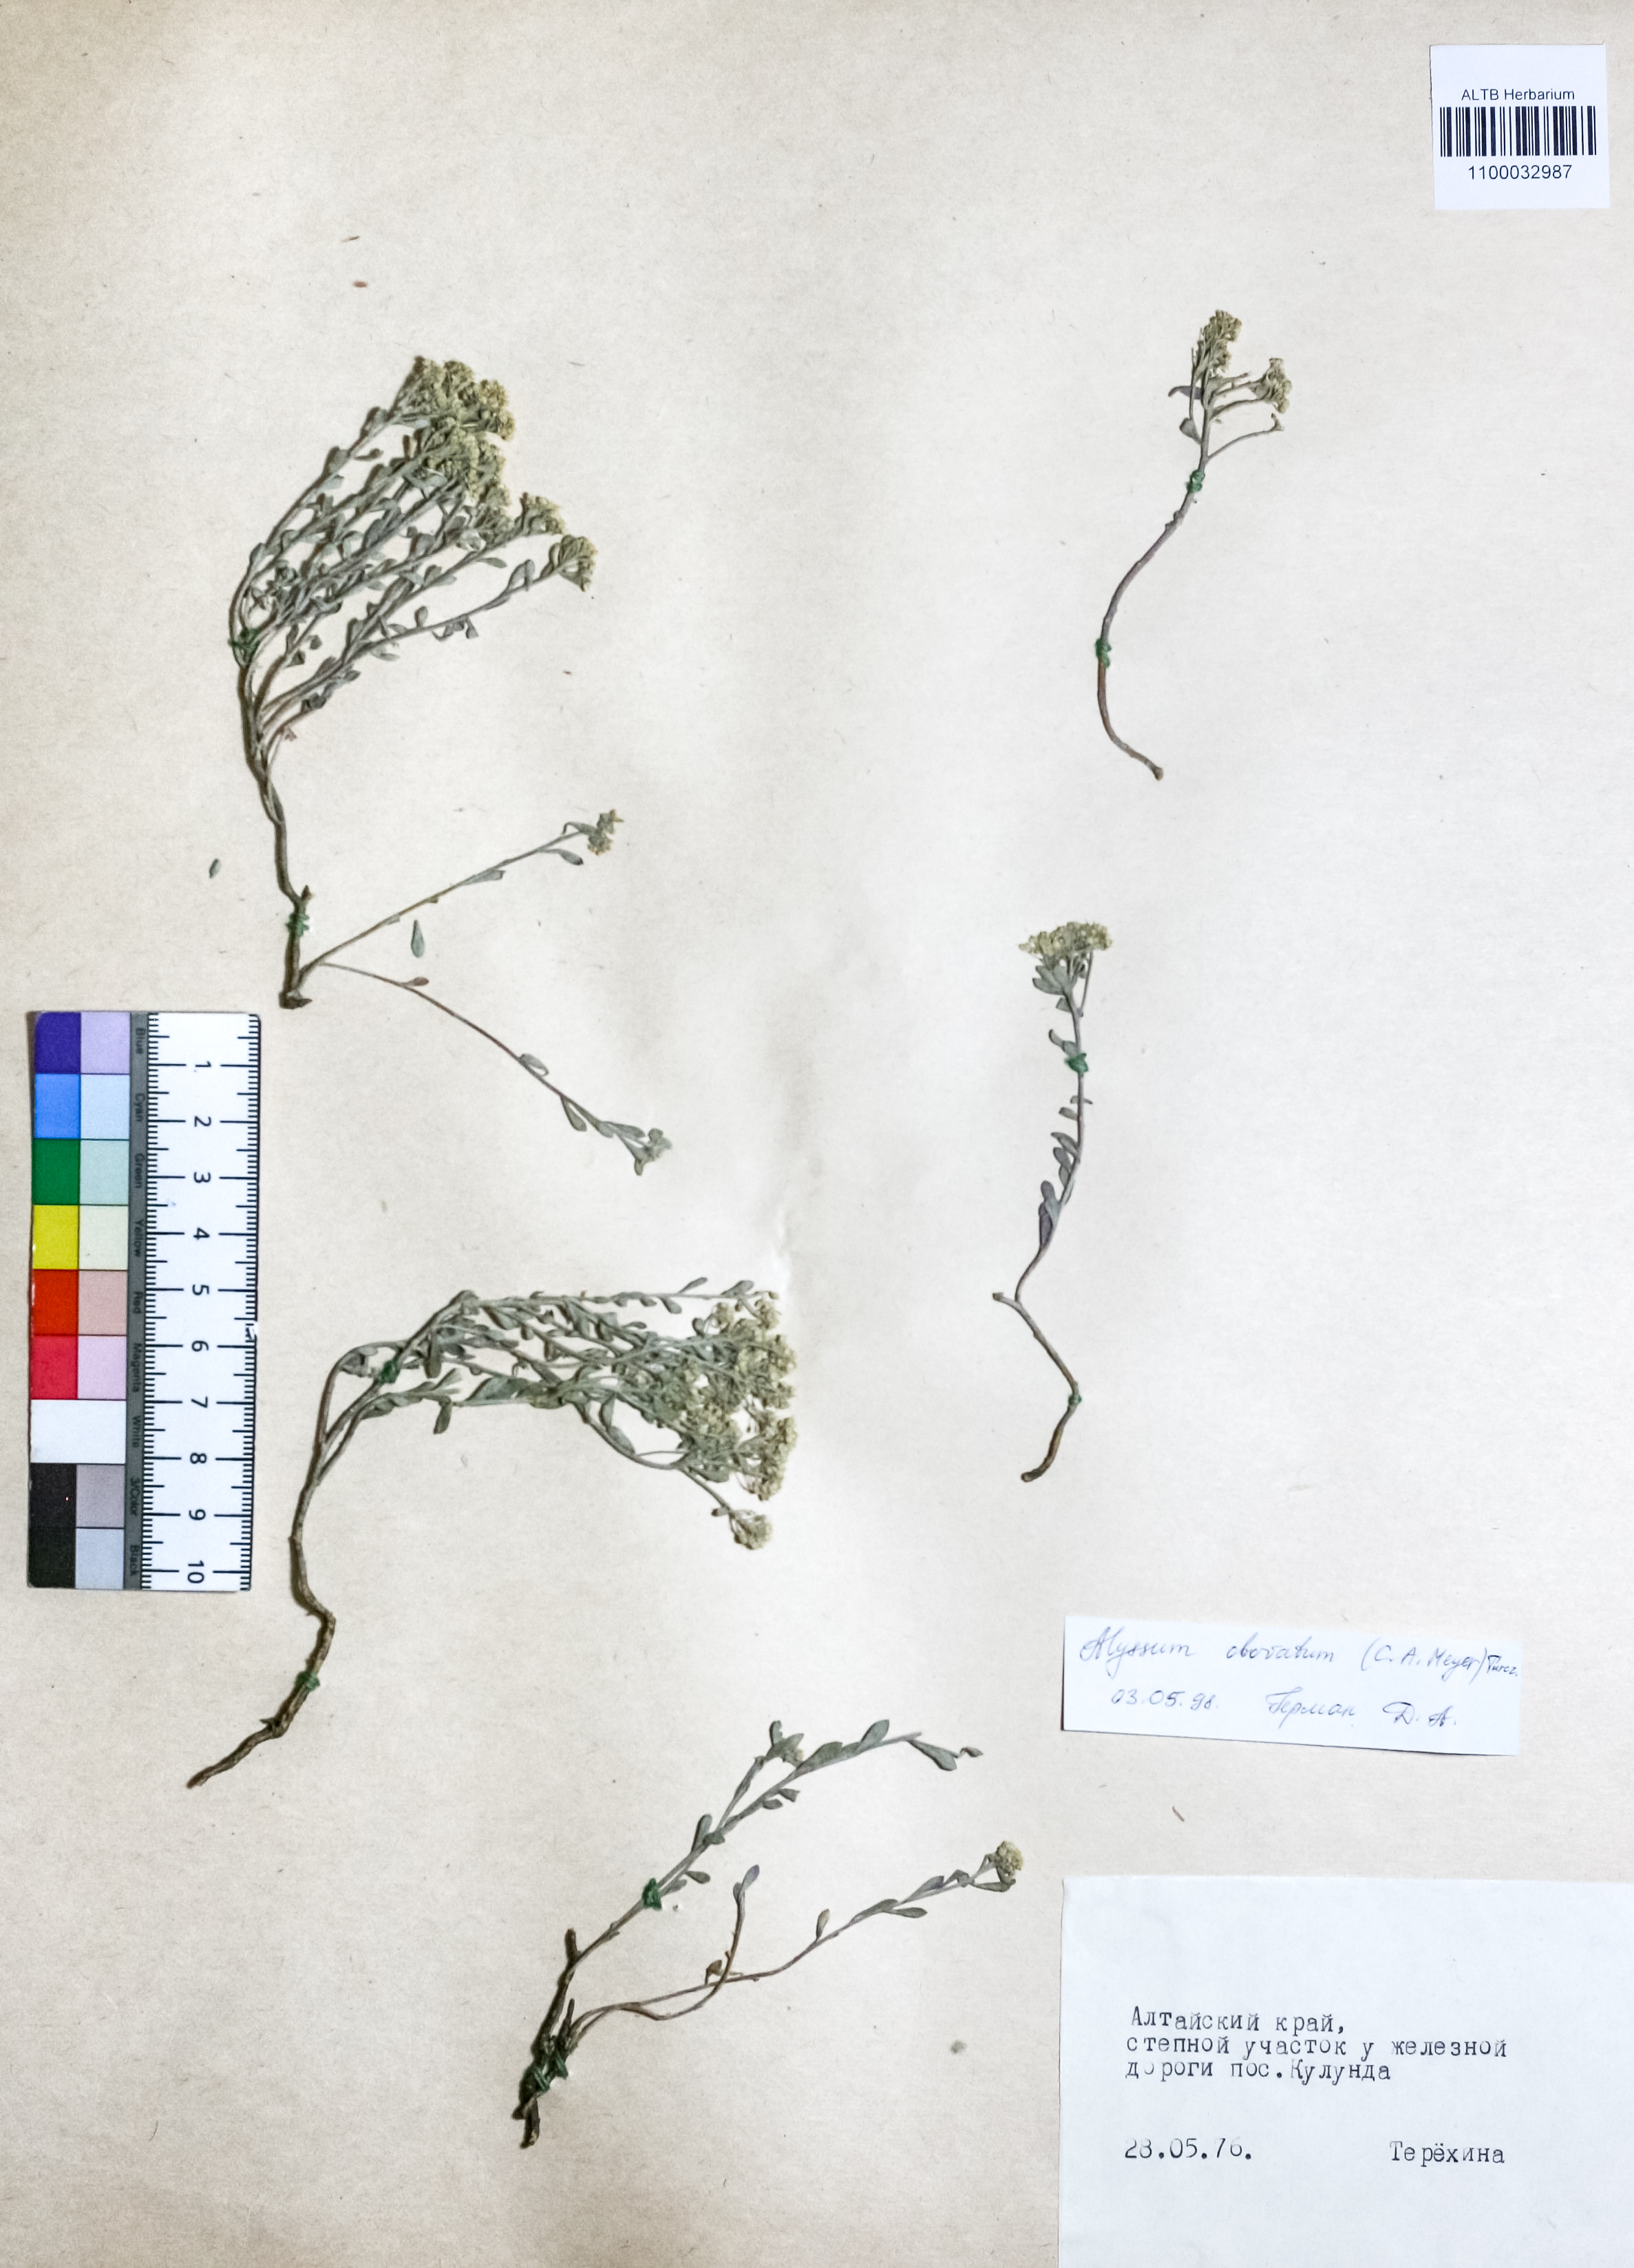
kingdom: Plantae
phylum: Tracheophyta
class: Magnoliopsida
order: Brassicales
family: Brassicaceae
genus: Odontarrhena
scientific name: Odontarrhena obovata
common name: American alyssum
